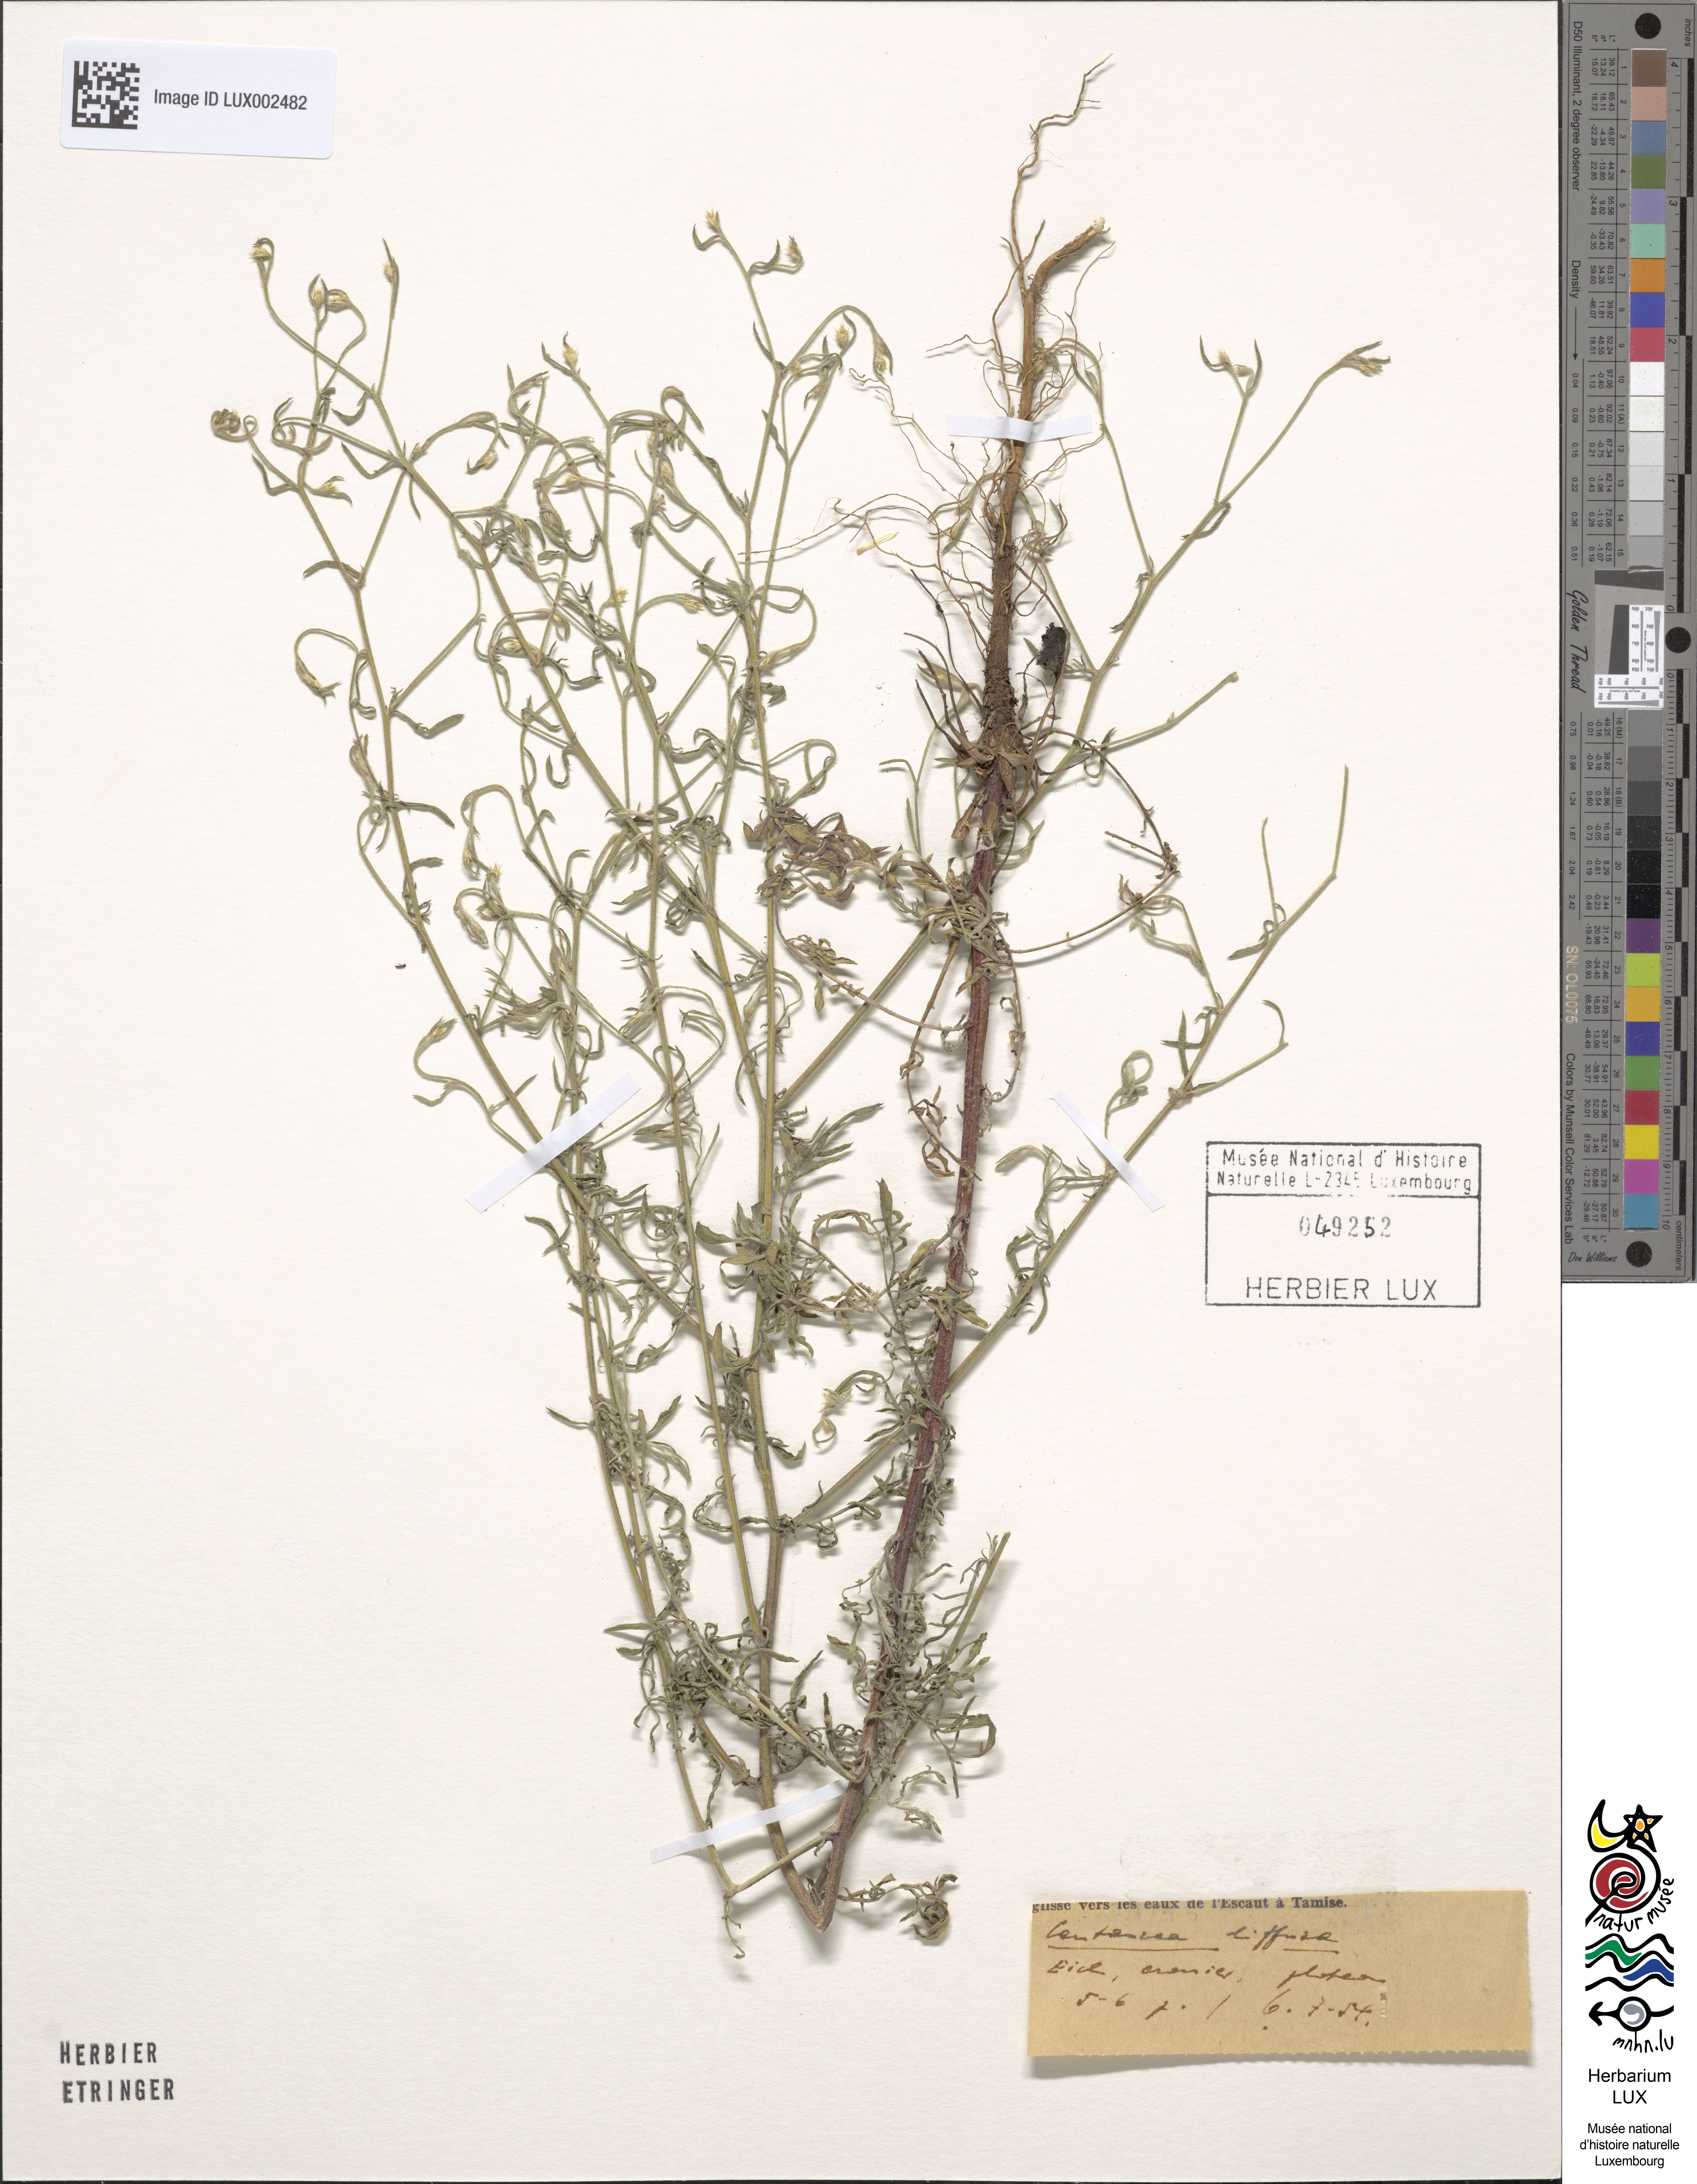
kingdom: Plantae
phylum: Tracheophyta
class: Magnoliopsida
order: Asterales
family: Asteraceae
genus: Centaurea
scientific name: Centaurea diffusa
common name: Diffuse knapweed
